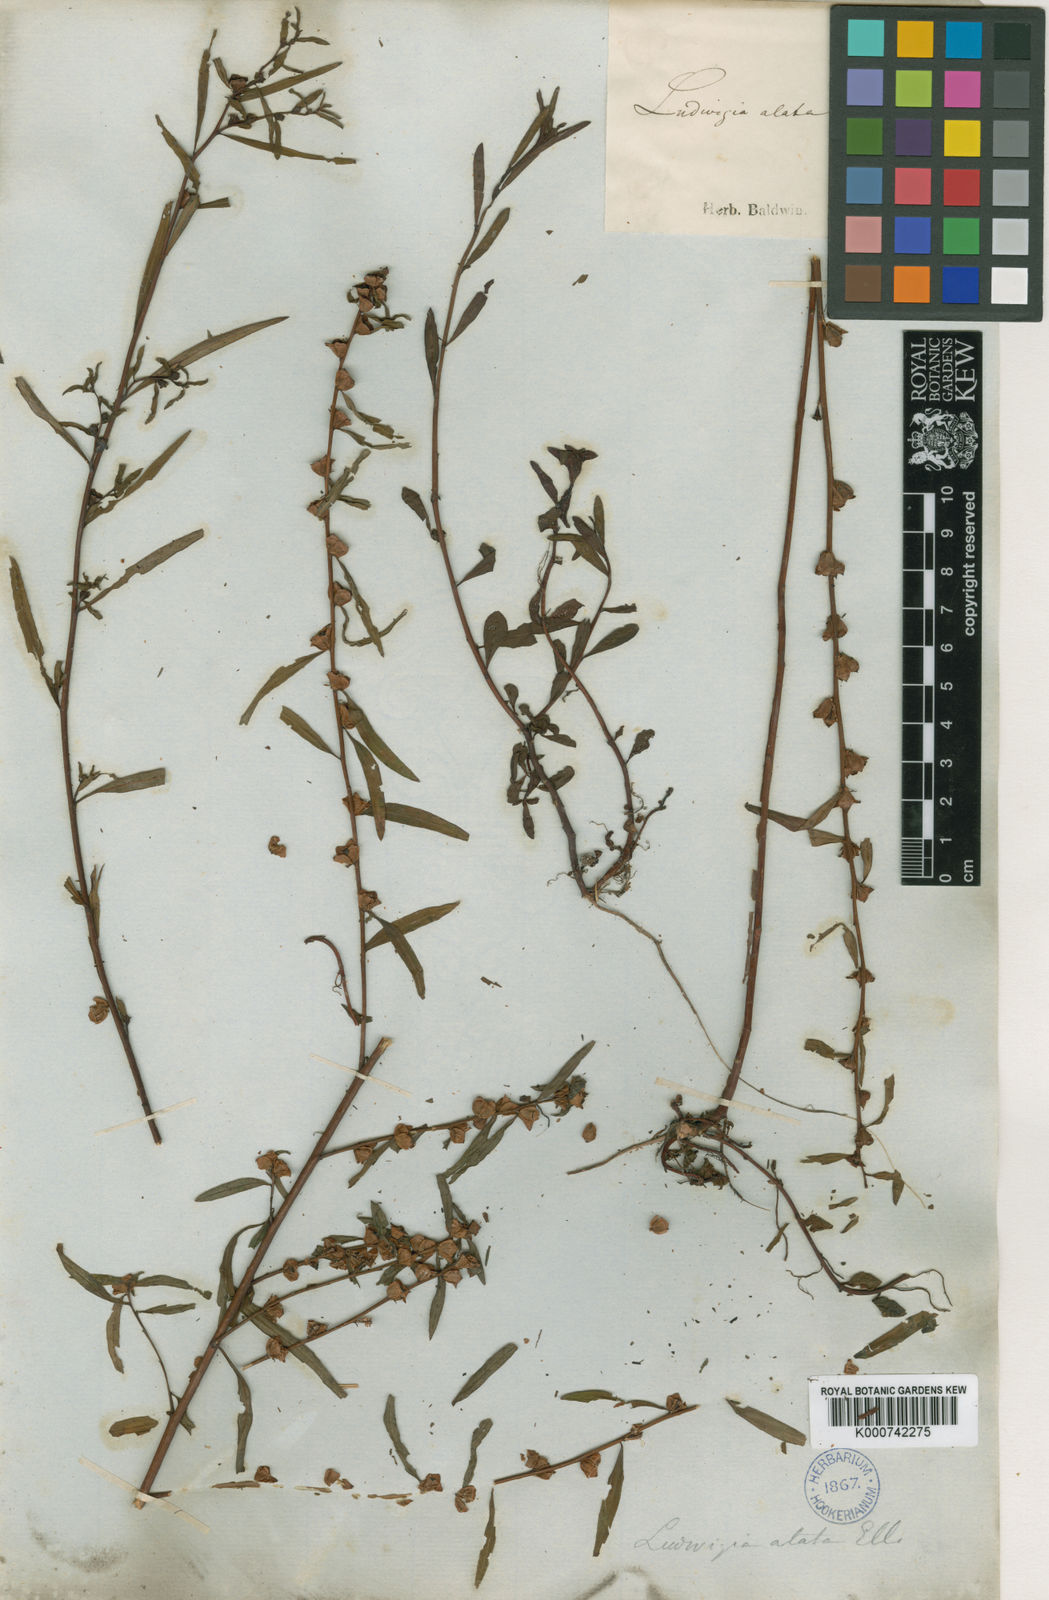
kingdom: Plantae
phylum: Tracheophyta
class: Magnoliopsida
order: Myrtales
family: Onagraceae
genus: Ludwigia
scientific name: Ludwigia lanceolata
